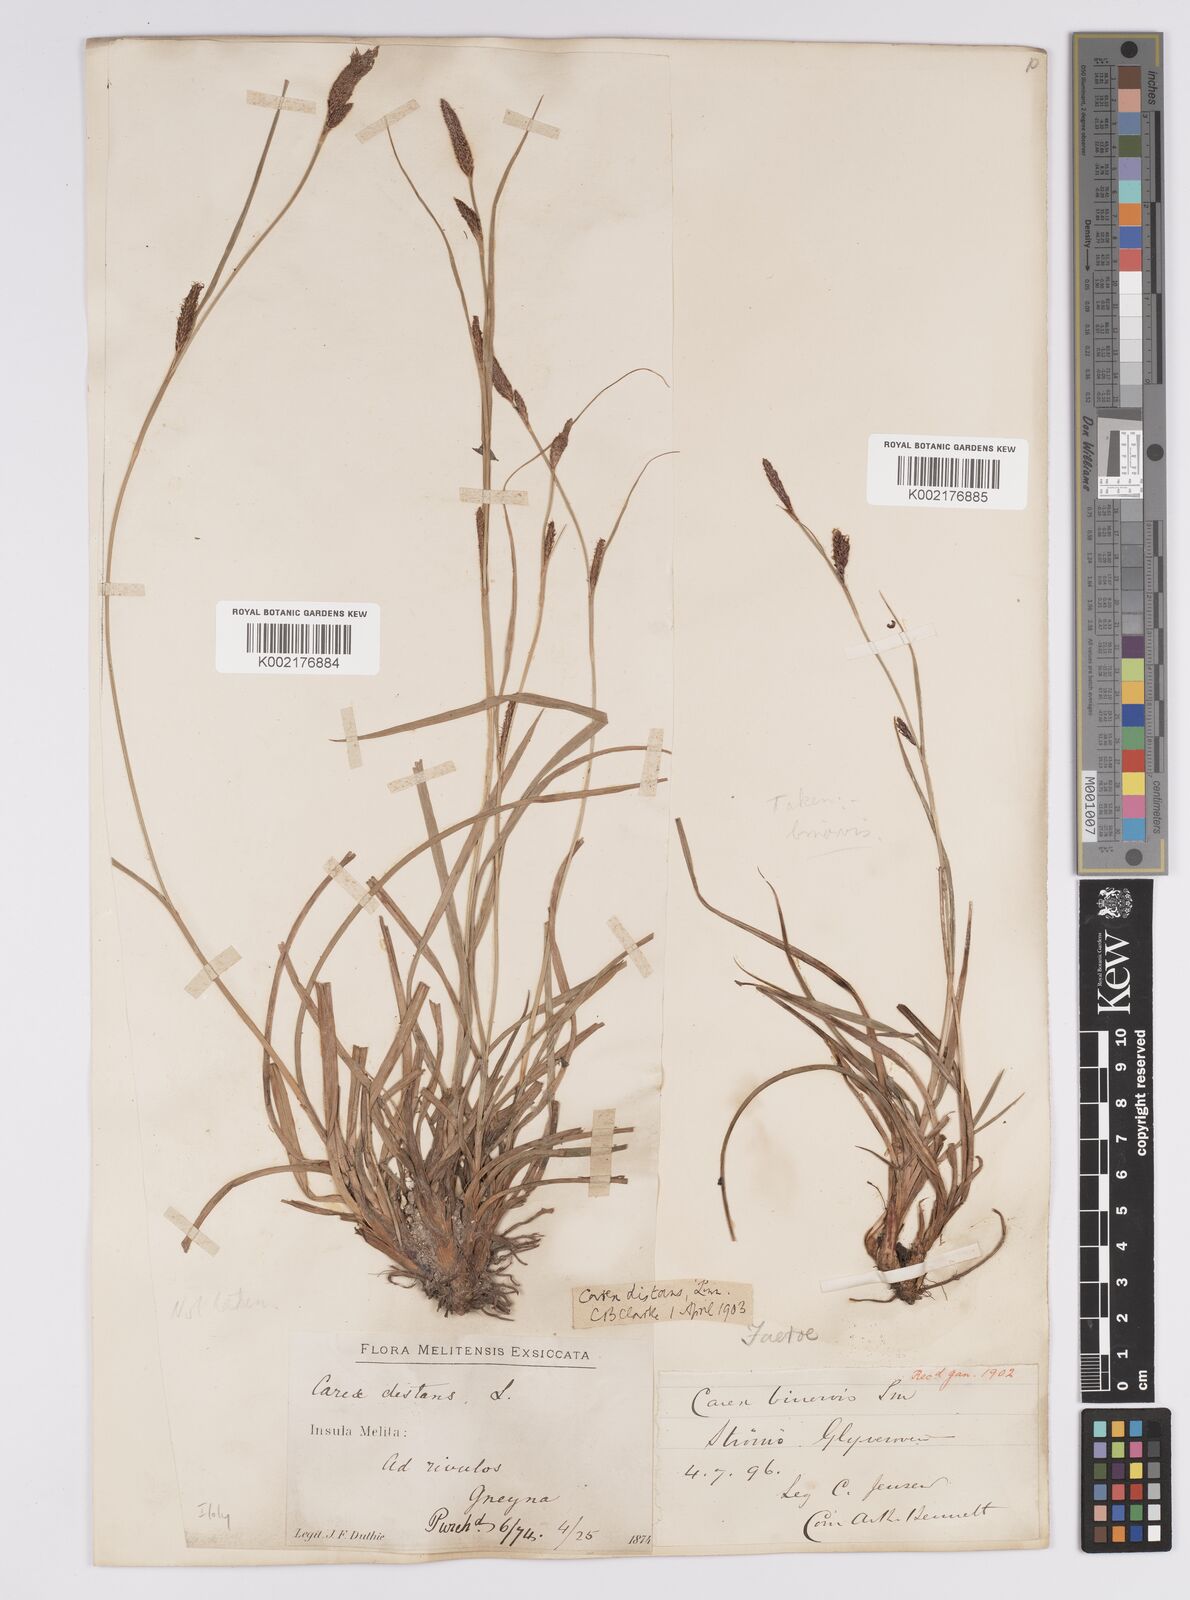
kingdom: Plantae
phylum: Tracheophyta
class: Liliopsida
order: Poales
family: Cyperaceae
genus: Carex
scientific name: Carex binervis
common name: Green-ribbed sedge
